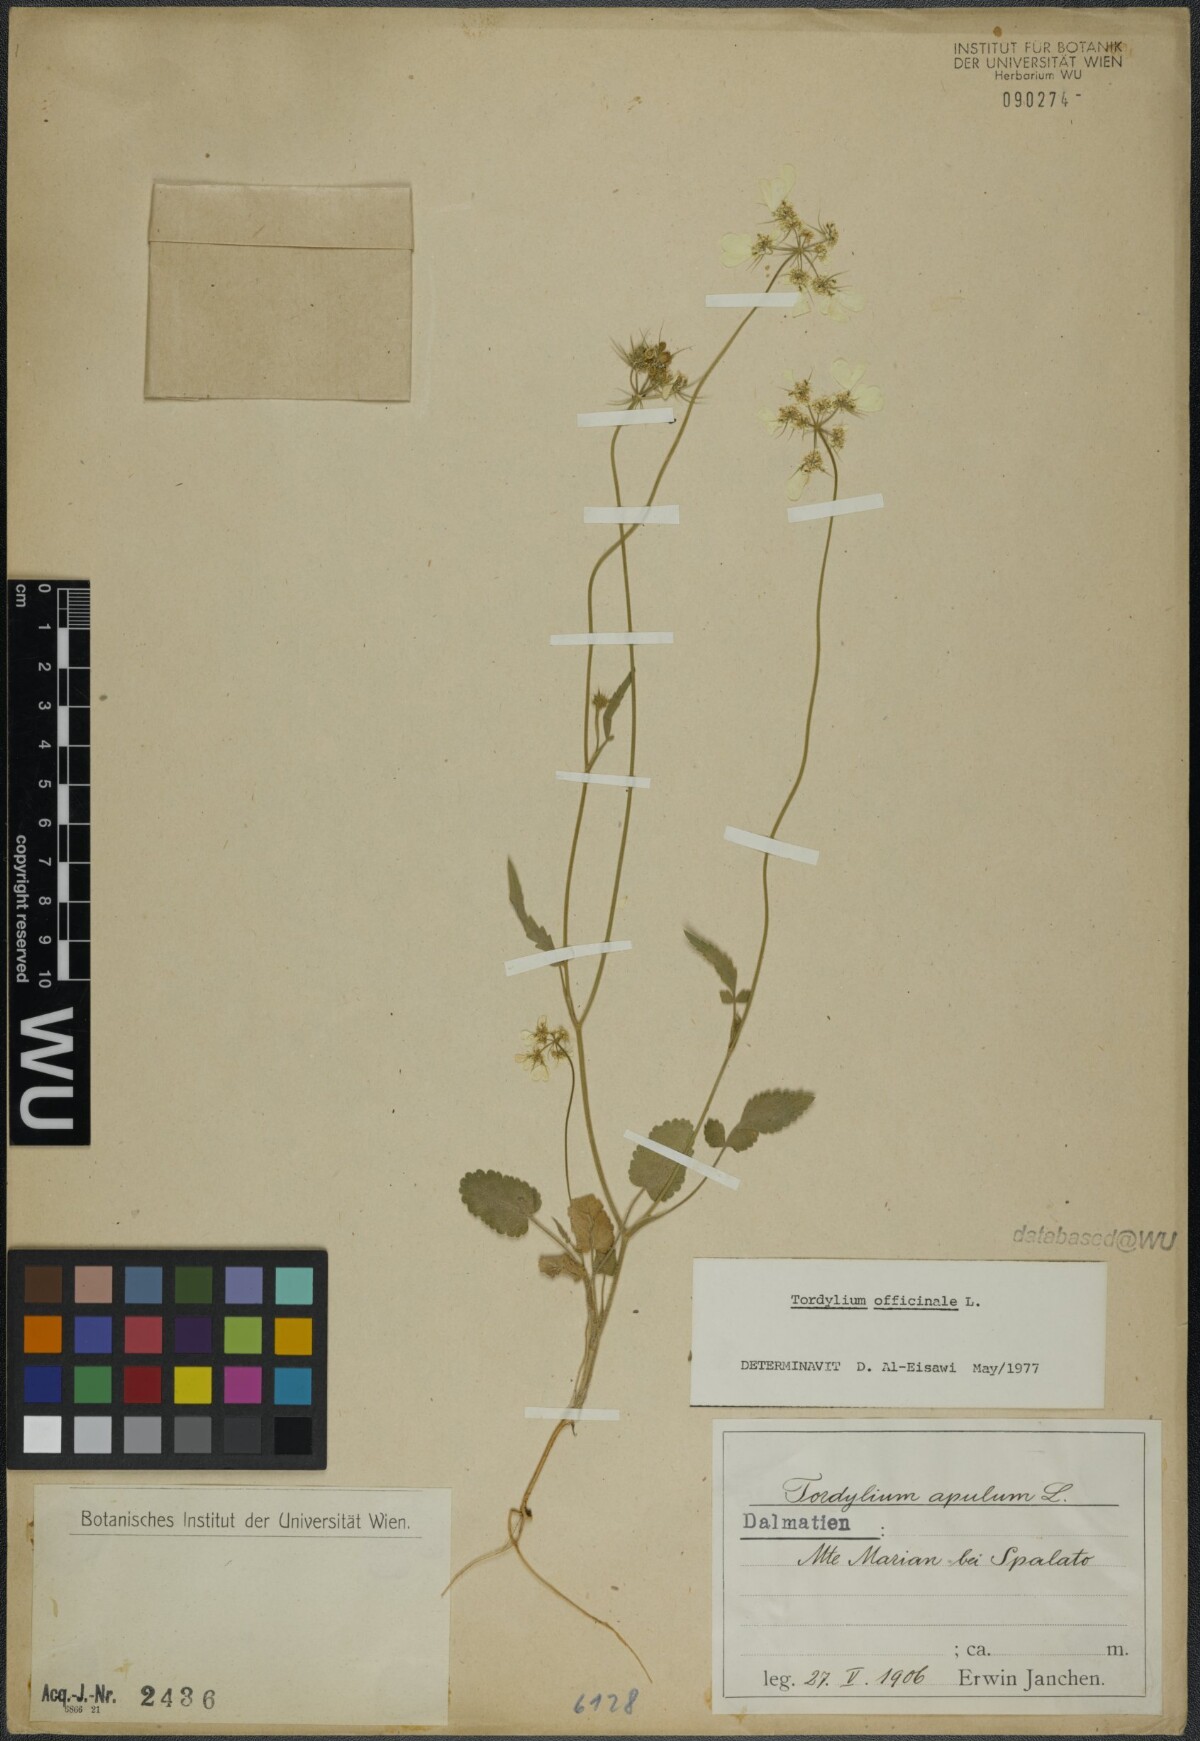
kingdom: Plantae
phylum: Tracheophyta
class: Magnoliopsida
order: Apiales
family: Apiaceae
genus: Tordylium
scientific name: Tordylium officinale
